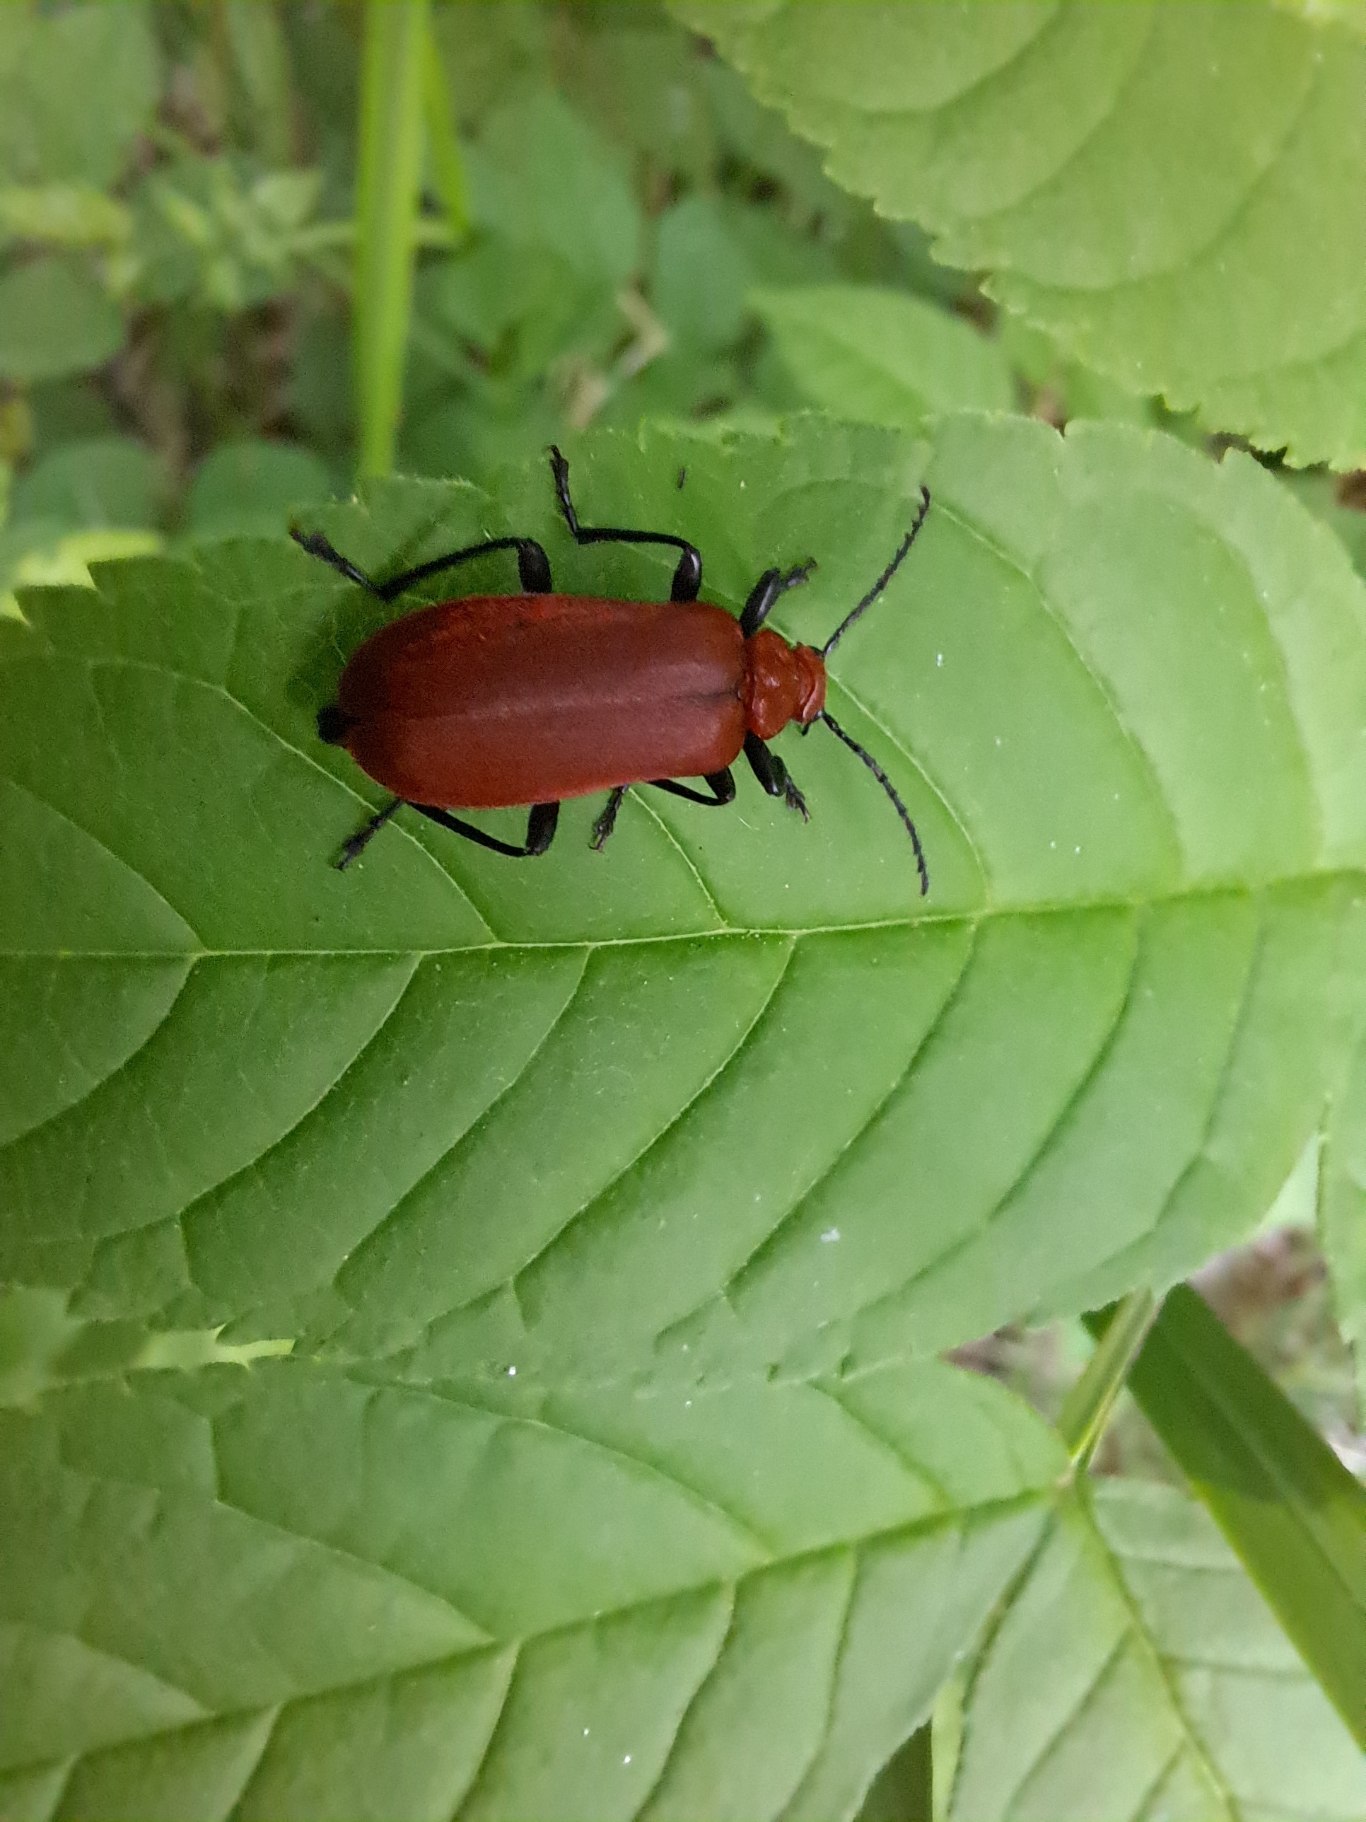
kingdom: Animalia
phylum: Arthropoda
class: Insecta
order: Coleoptera
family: Pyrochroidae
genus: Pyrochroa
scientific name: Pyrochroa serraticornis
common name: Rødhovedet kardinalbille
